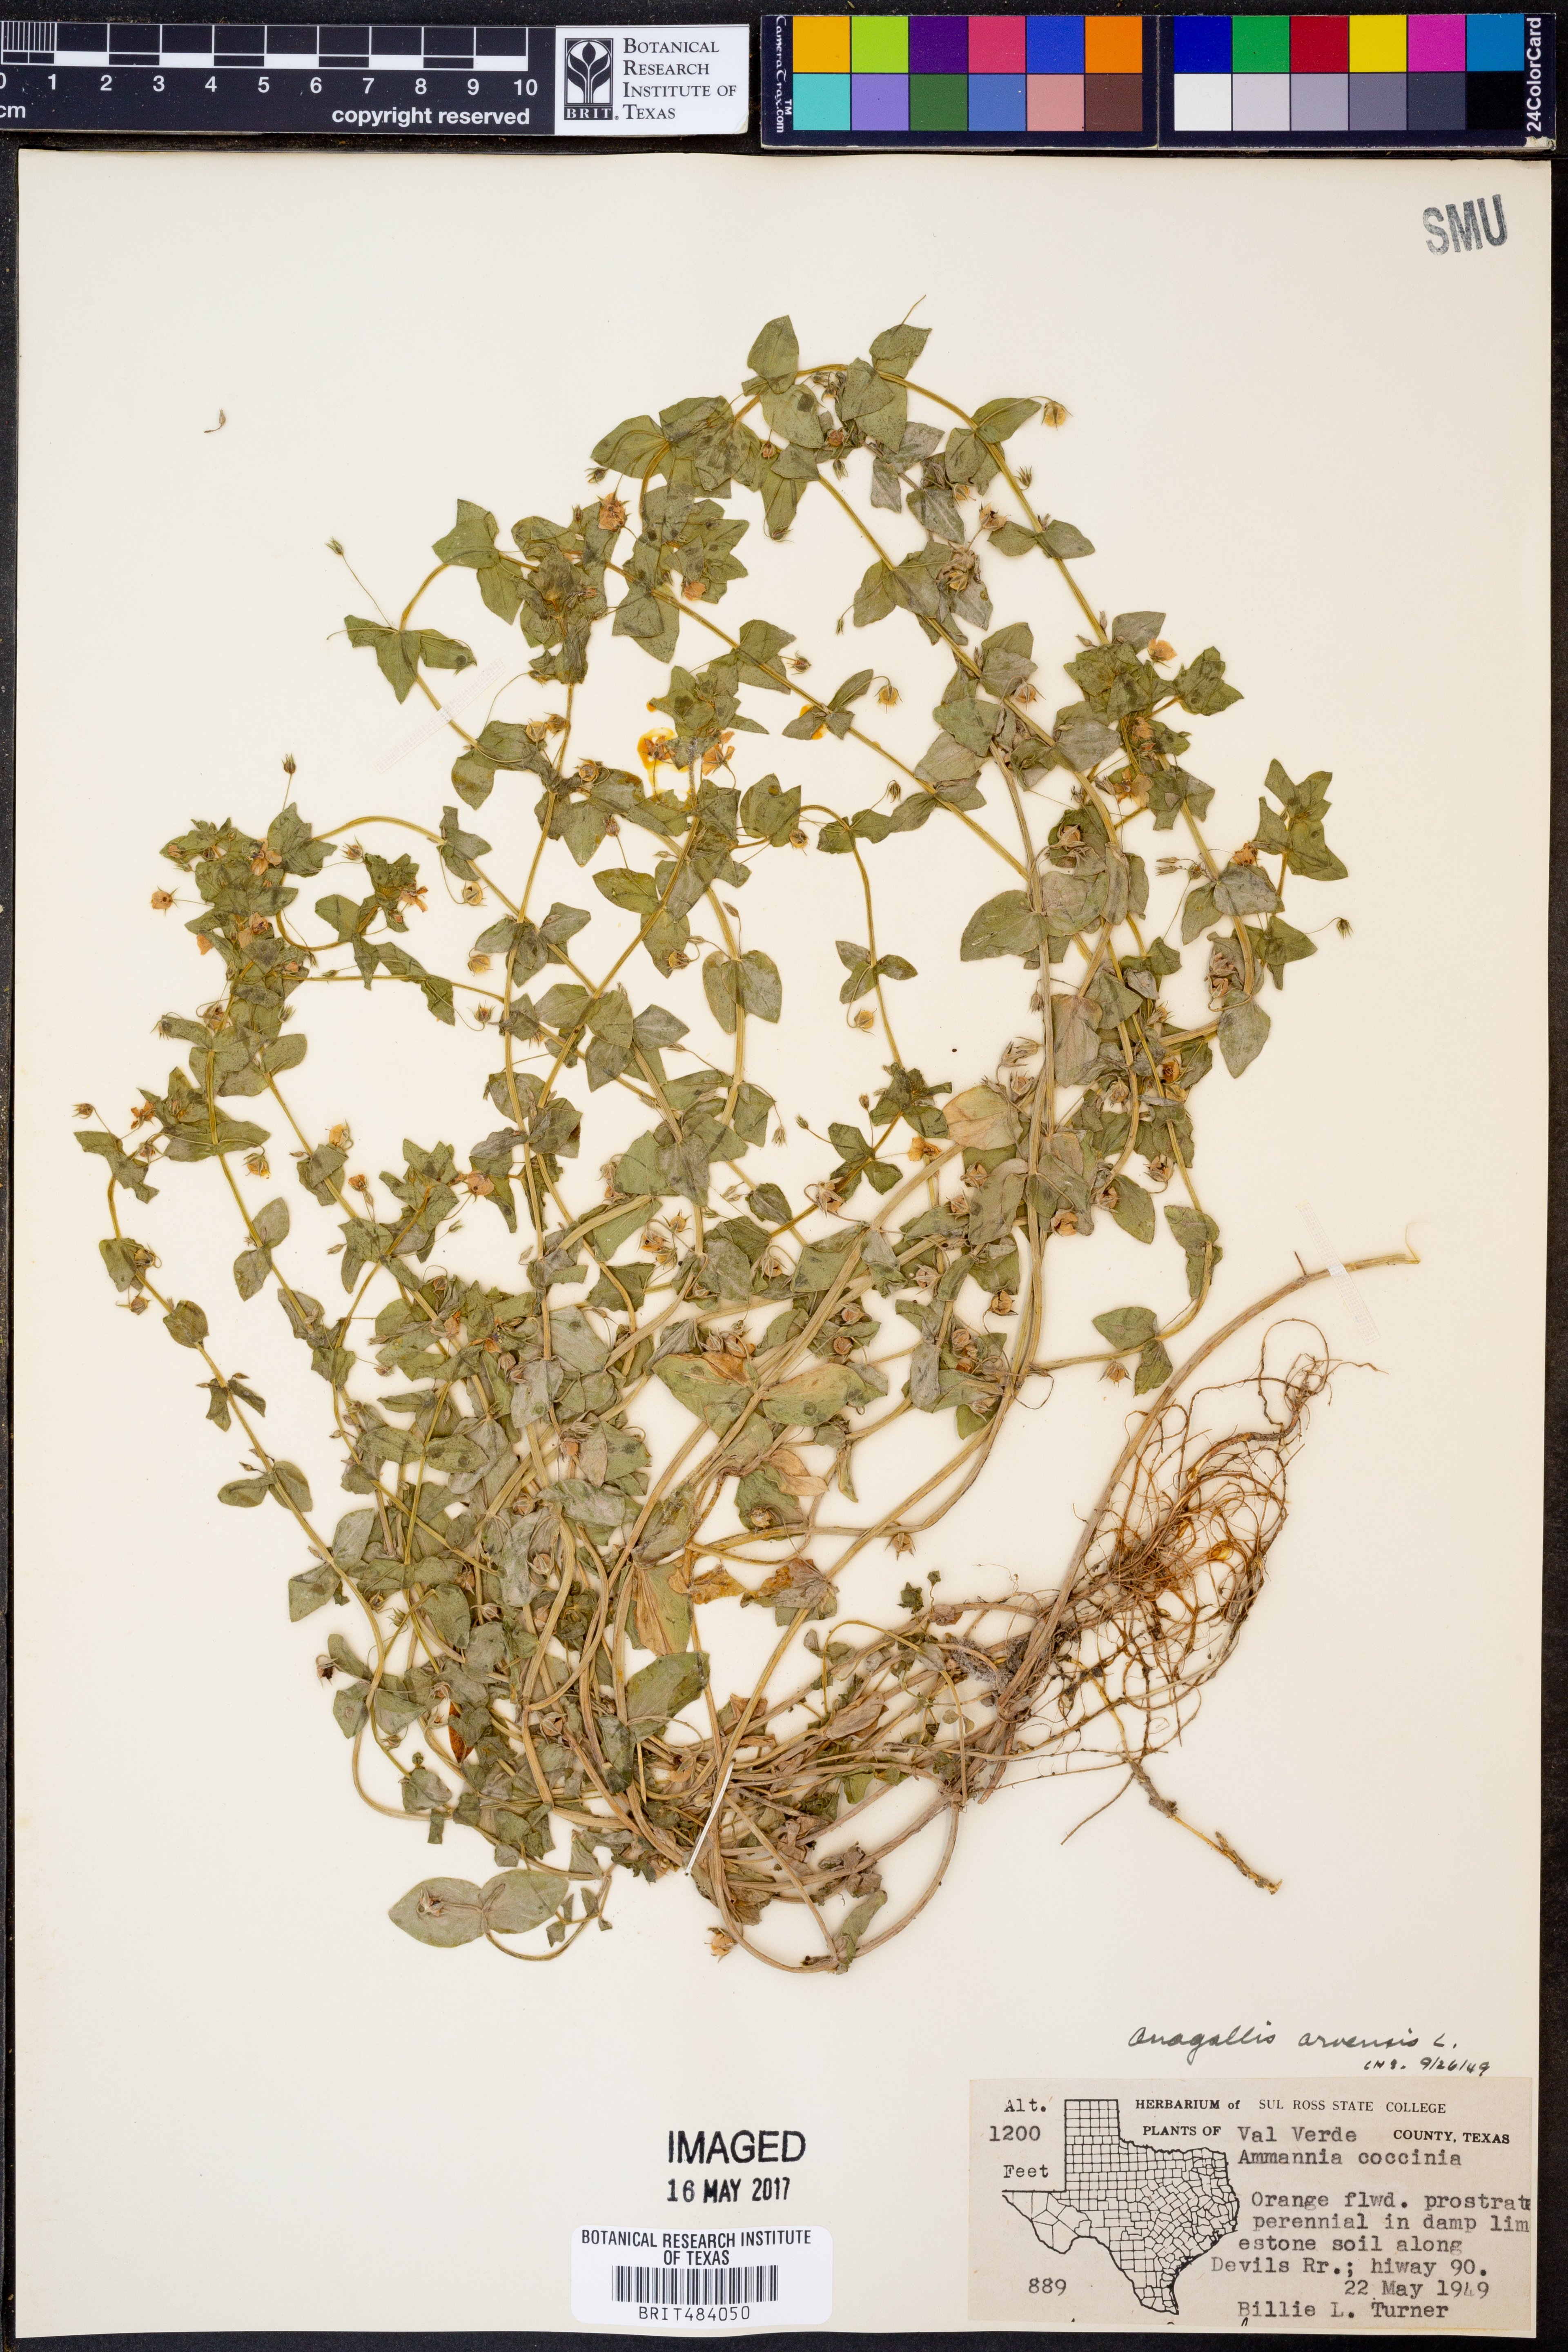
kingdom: Plantae
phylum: Tracheophyta
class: Magnoliopsida
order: Ericales
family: Primulaceae
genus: Lysimachia
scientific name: Lysimachia arvensis
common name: Scarlet pimpernel
